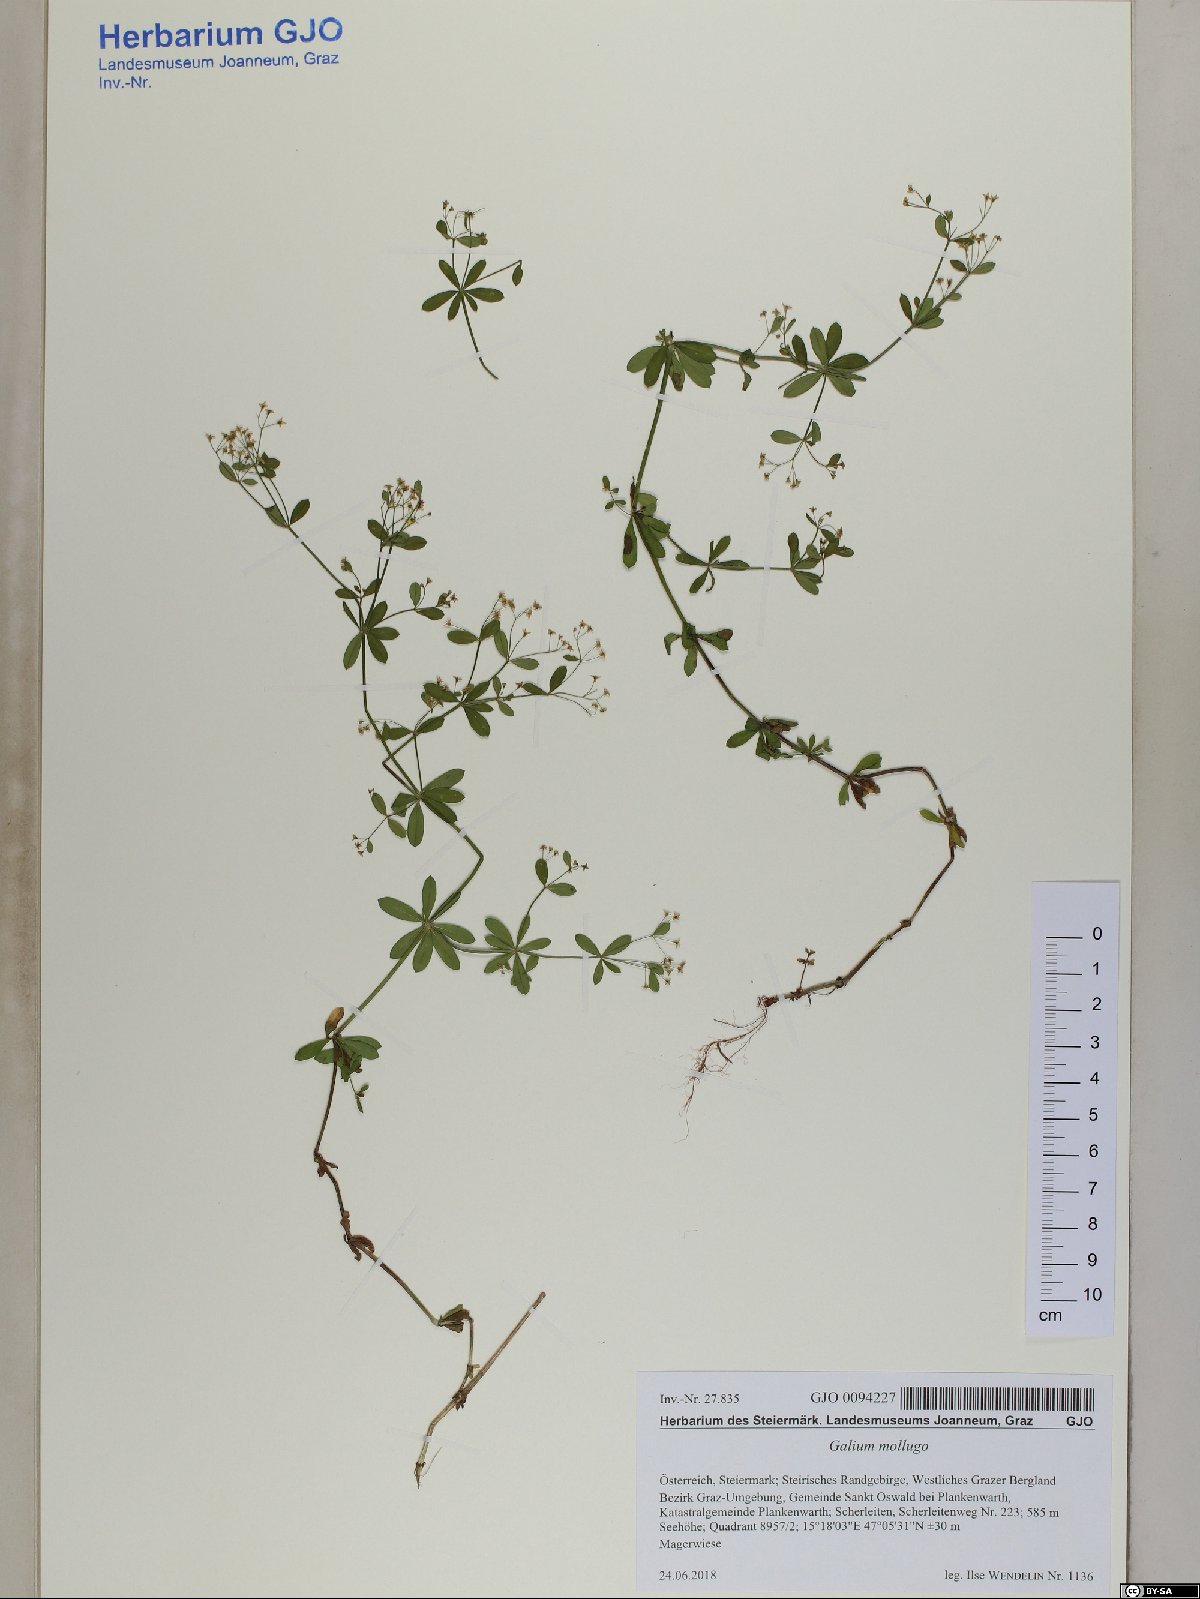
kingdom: Plantae
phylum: Tracheophyta
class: Magnoliopsida
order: Gentianales
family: Rubiaceae
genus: Galium
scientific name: Galium mollugo
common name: Hedge bedstraw
